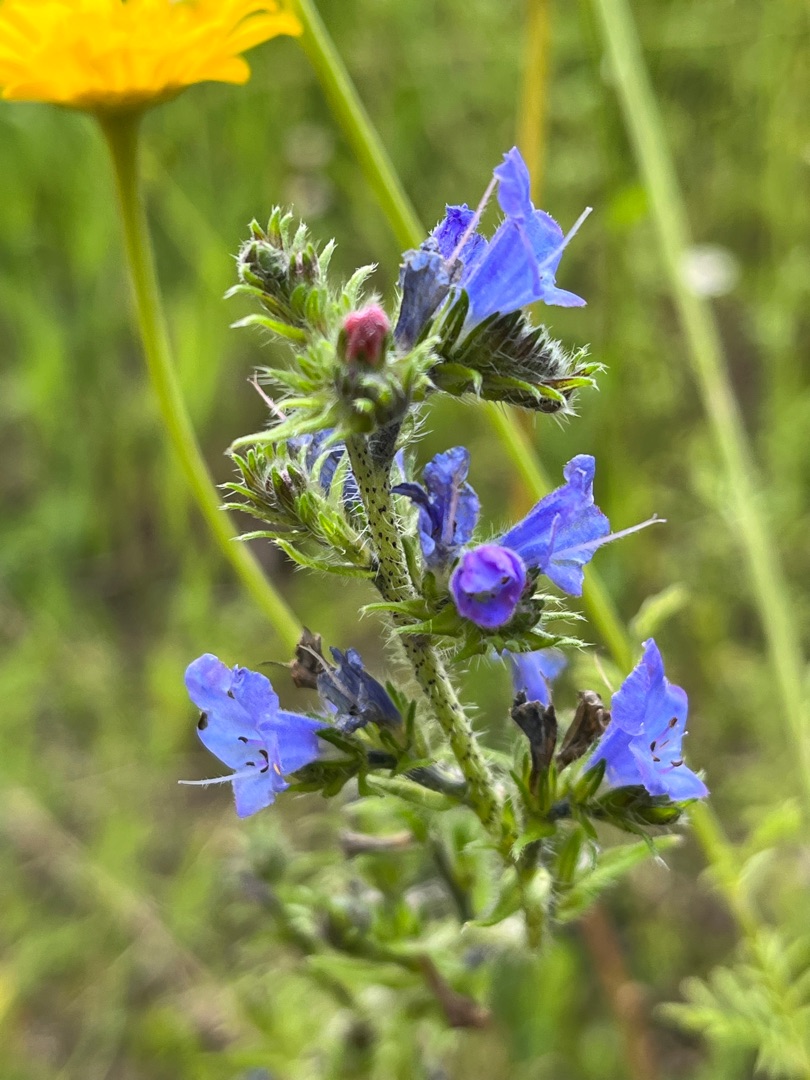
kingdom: Plantae
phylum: Tracheophyta
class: Magnoliopsida
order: Boraginales
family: Boraginaceae
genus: Echium
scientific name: Echium vulgare
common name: Slangehoved
